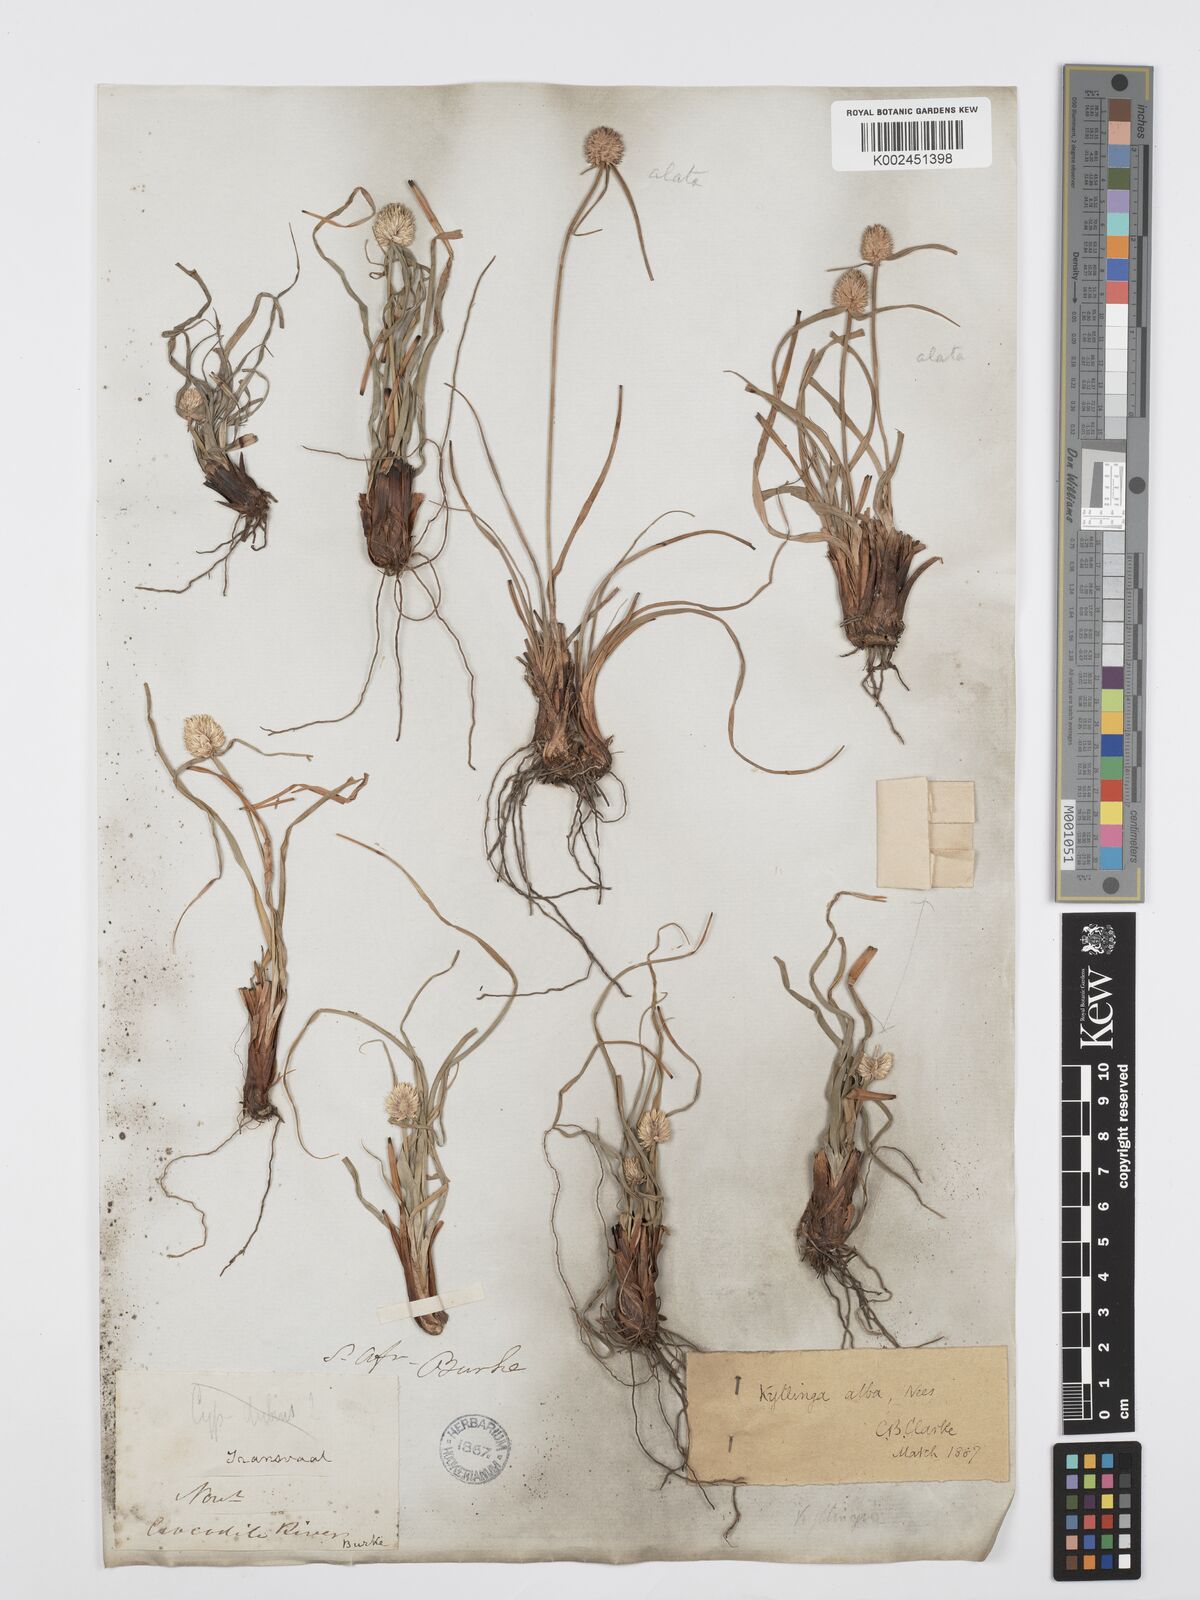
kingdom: Plantae
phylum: Tracheophyta
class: Liliopsida
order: Poales
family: Cyperaceae
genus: Cyperus
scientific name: Cyperus alatus
